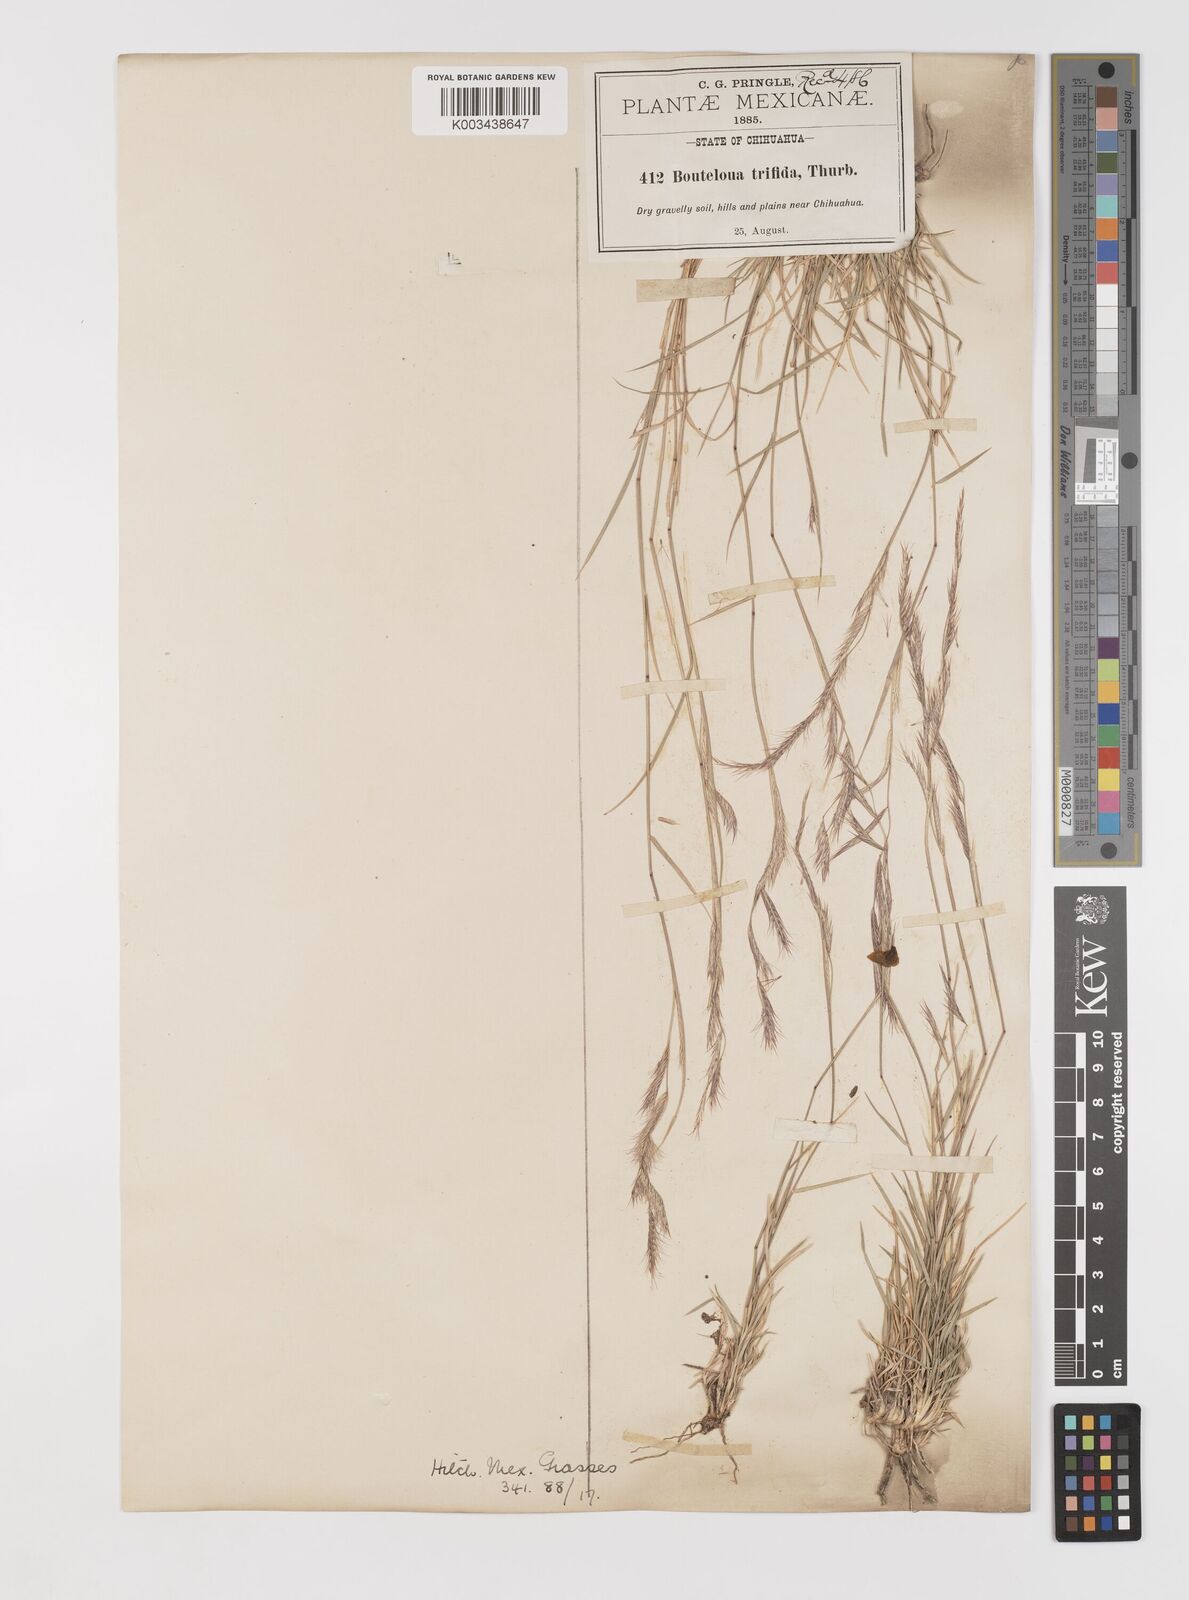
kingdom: Plantae
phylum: Tracheophyta
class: Liliopsida
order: Poales
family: Poaceae
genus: Bouteloua
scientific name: Bouteloua
